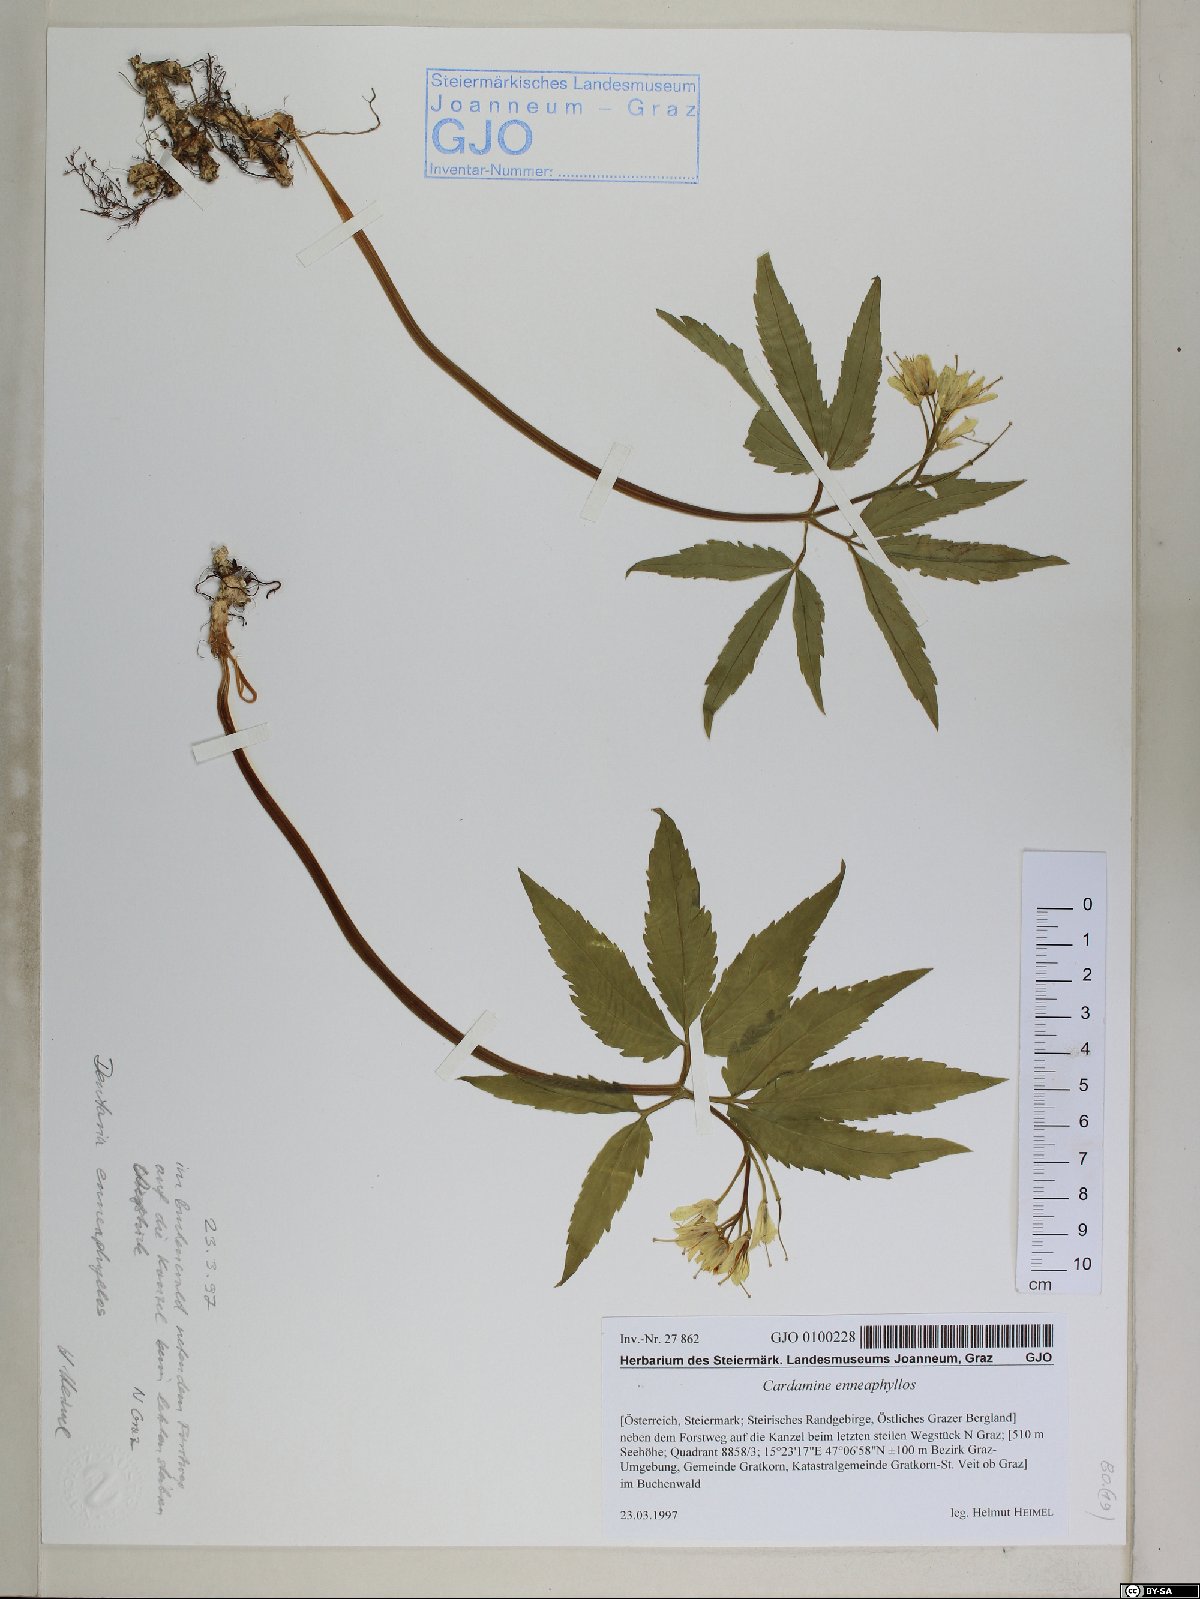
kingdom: Plantae
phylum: Tracheophyta
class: Magnoliopsida
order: Brassicales
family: Brassicaceae
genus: Cardamine
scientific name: Cardamine enneaphyllos
